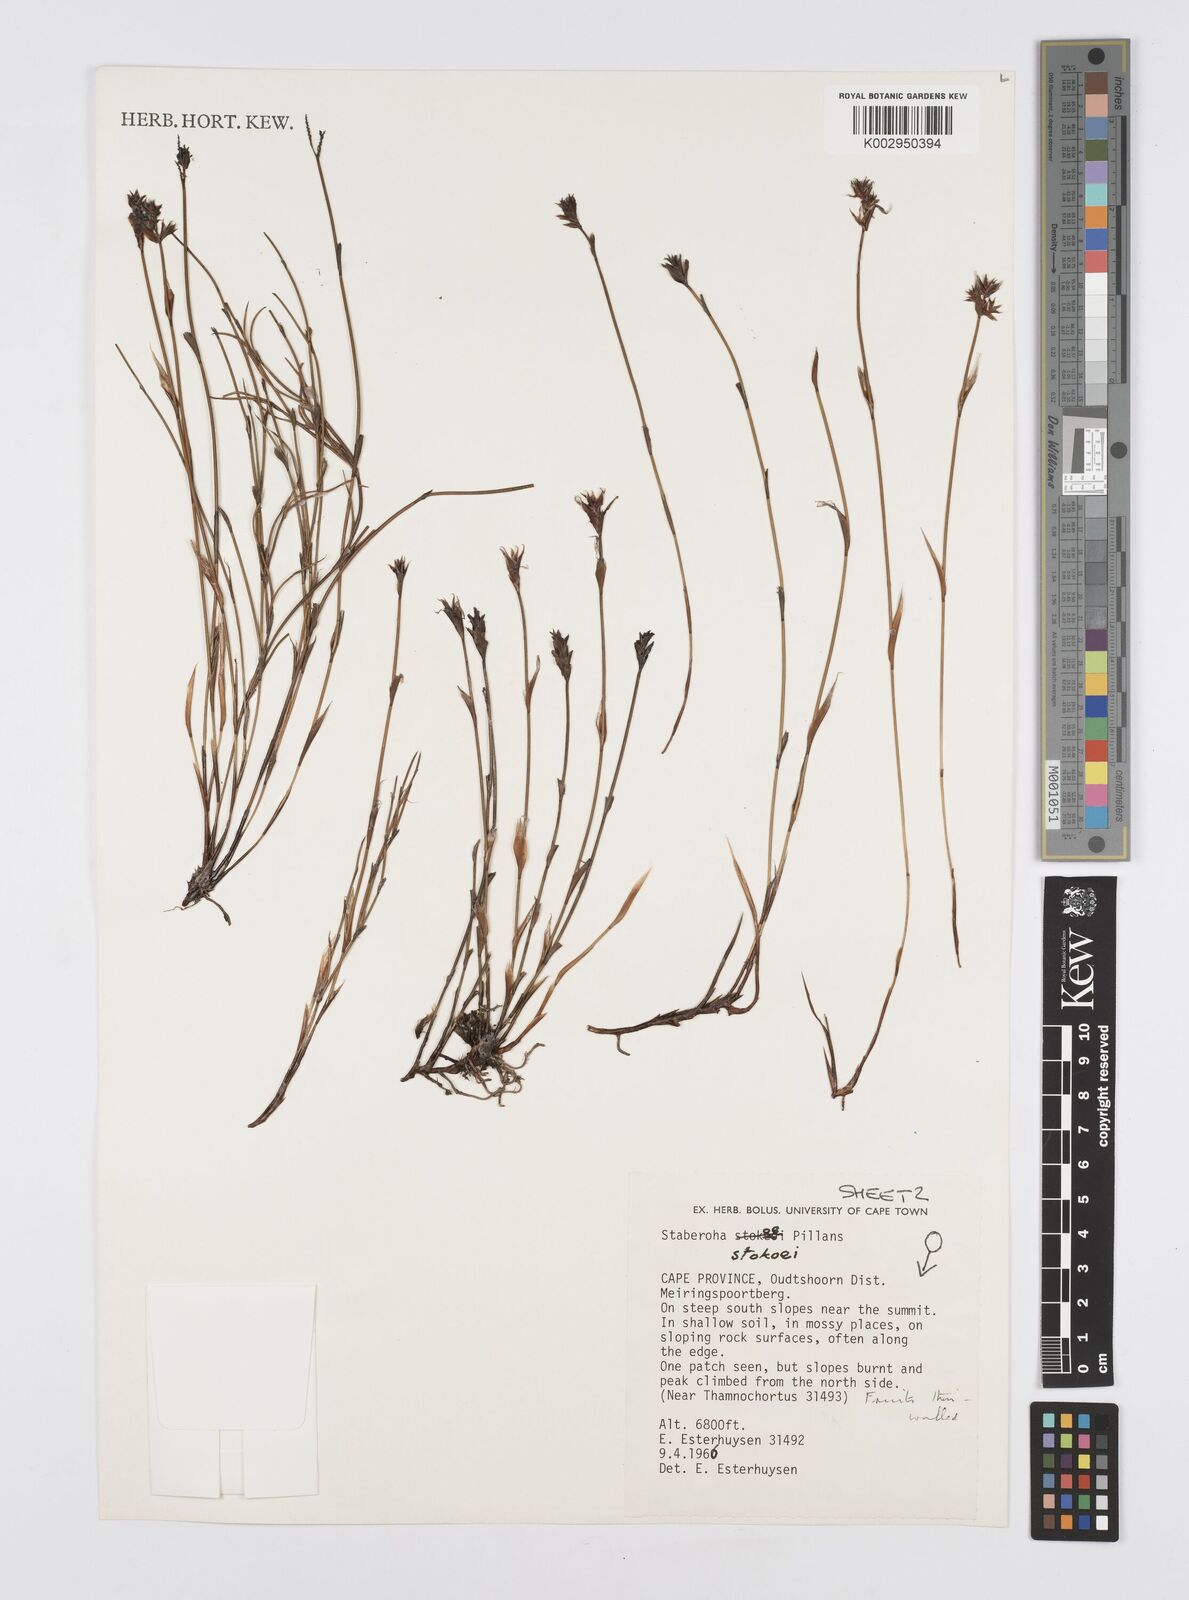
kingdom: Plantae
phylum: Tracheophyta
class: Liliopsida
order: Poales
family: Restionaceae
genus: Staberoha
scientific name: Staberoha stokoei
